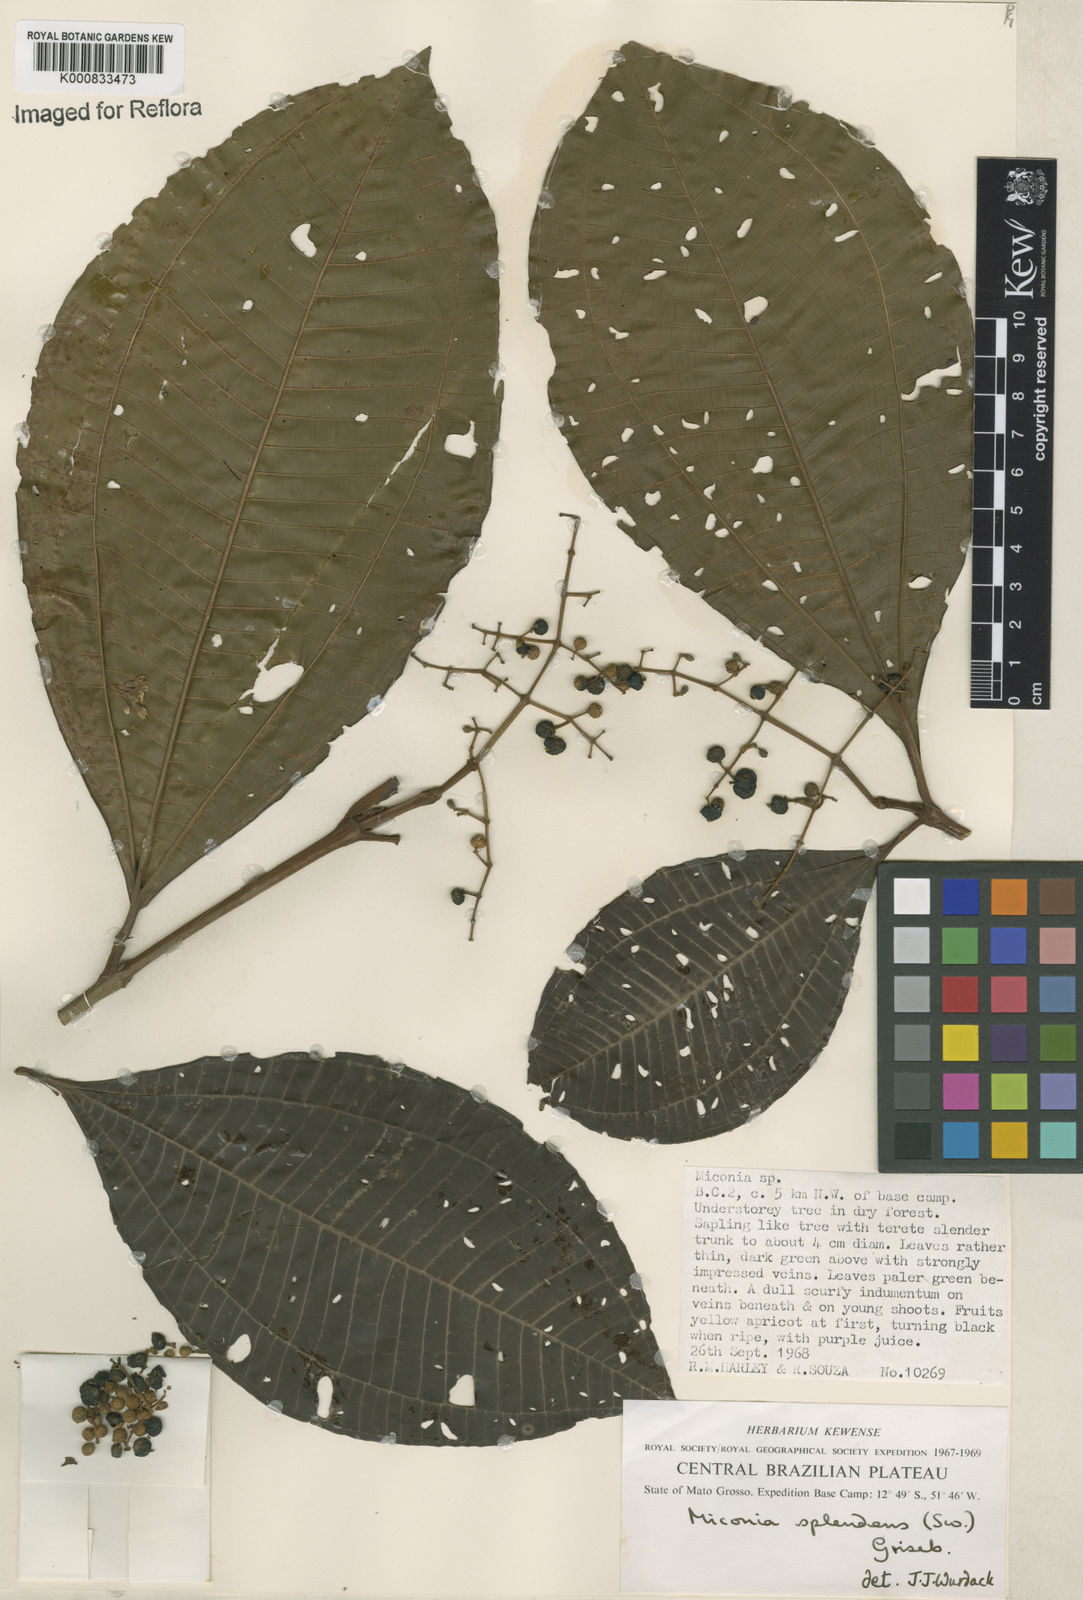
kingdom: Plantae
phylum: Tracheophyta
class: Magnoliopsida
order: Myrtales
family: Melastomataceae
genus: Miconia
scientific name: Miconia splendens
